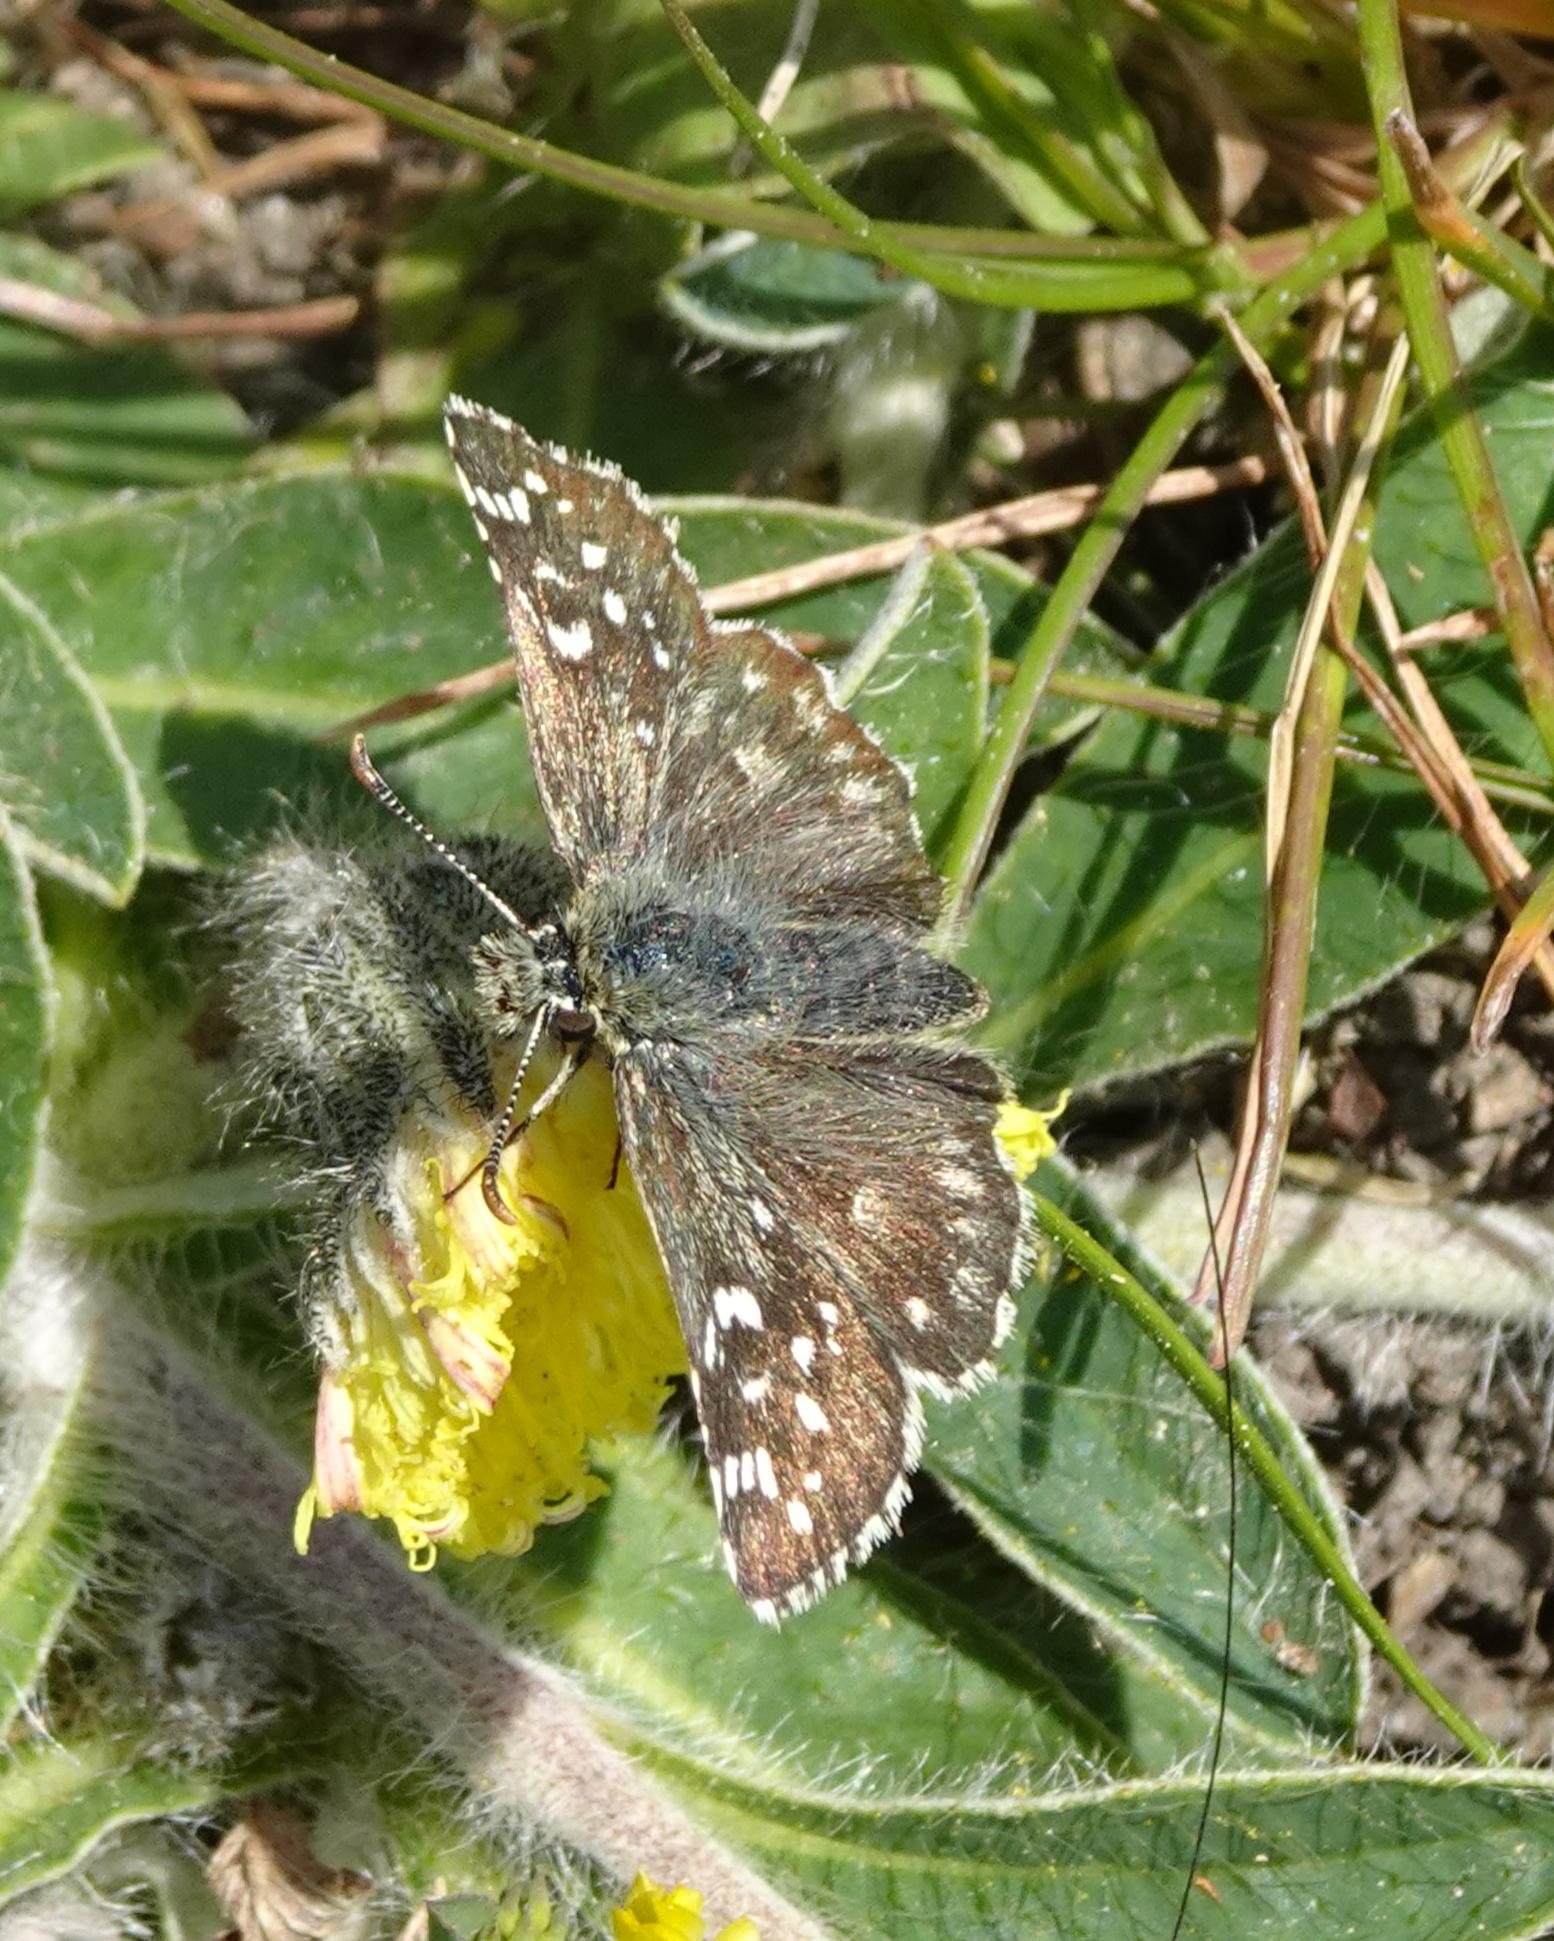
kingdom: Animalia
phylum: Arthropoda
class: Insecta
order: Lepidoptera
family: Hesperiidae
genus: Pyrgus
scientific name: Pyrgus armoricanus
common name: Fransk bredpande
